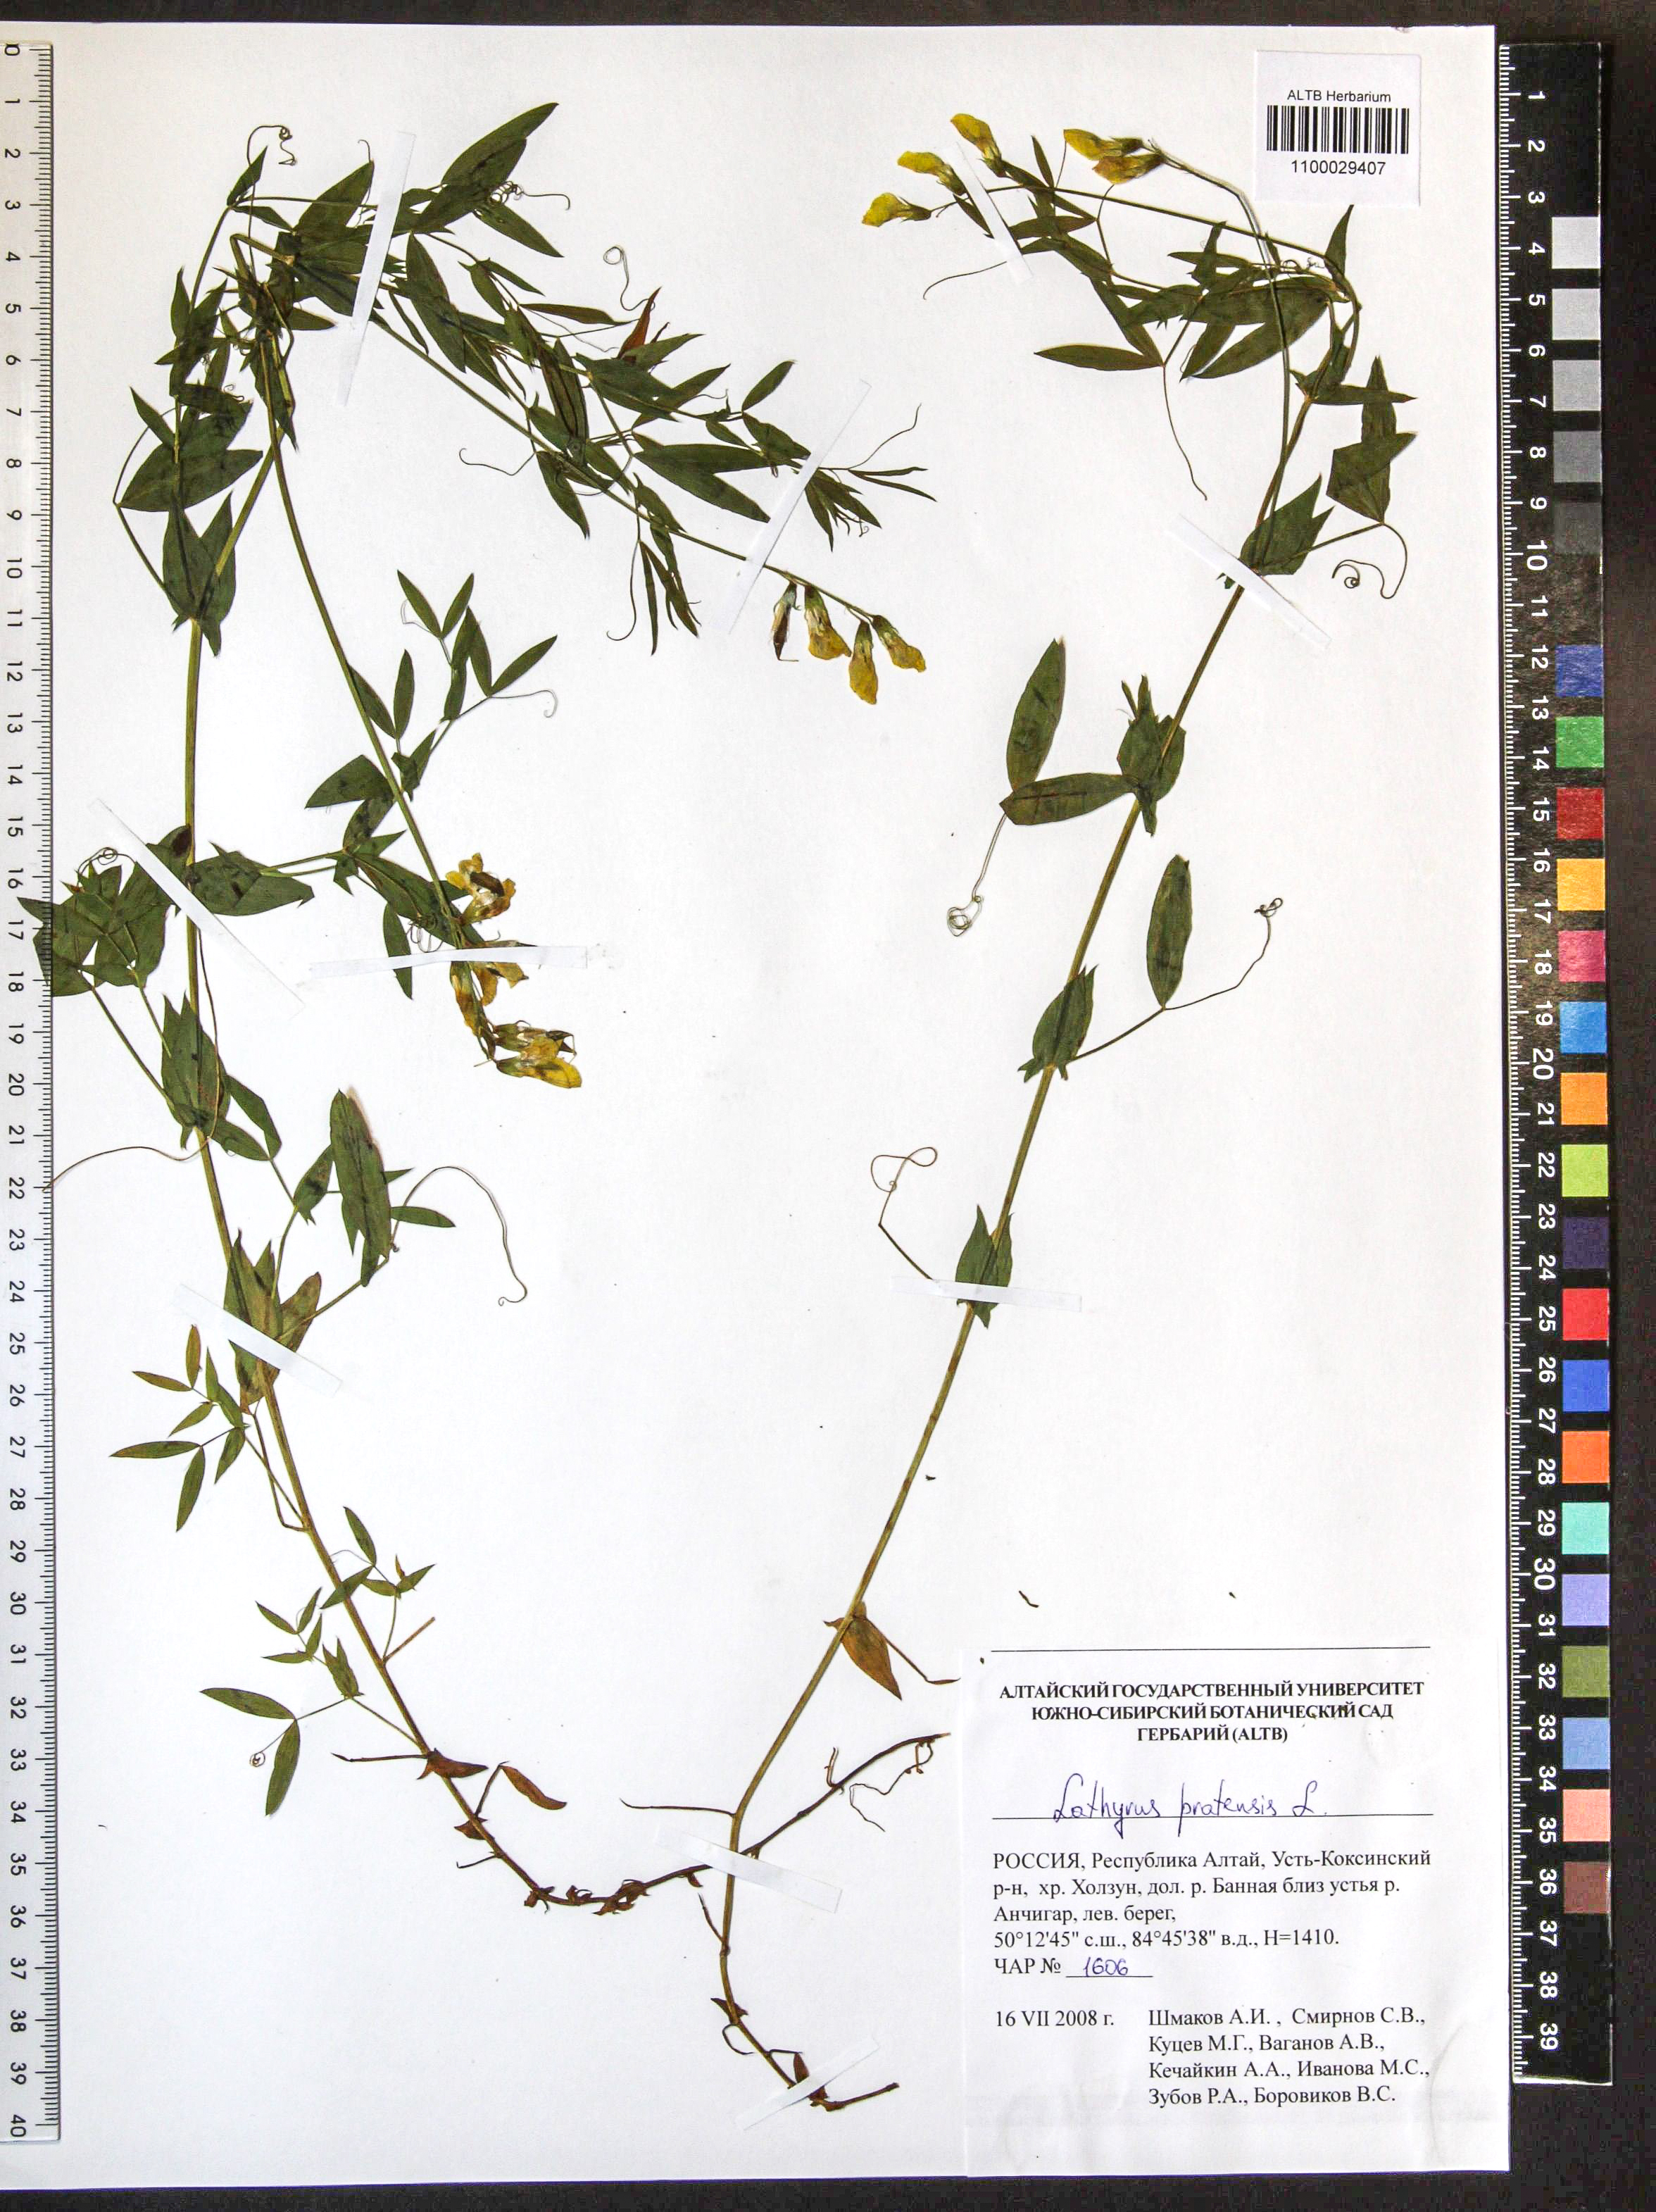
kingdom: Plantae
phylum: Tracheophyta
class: Magnoliopsida
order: Fabales
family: Fabaceae
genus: Lathyrus
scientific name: Lathyrus pratensis
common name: Meadow vetchling
